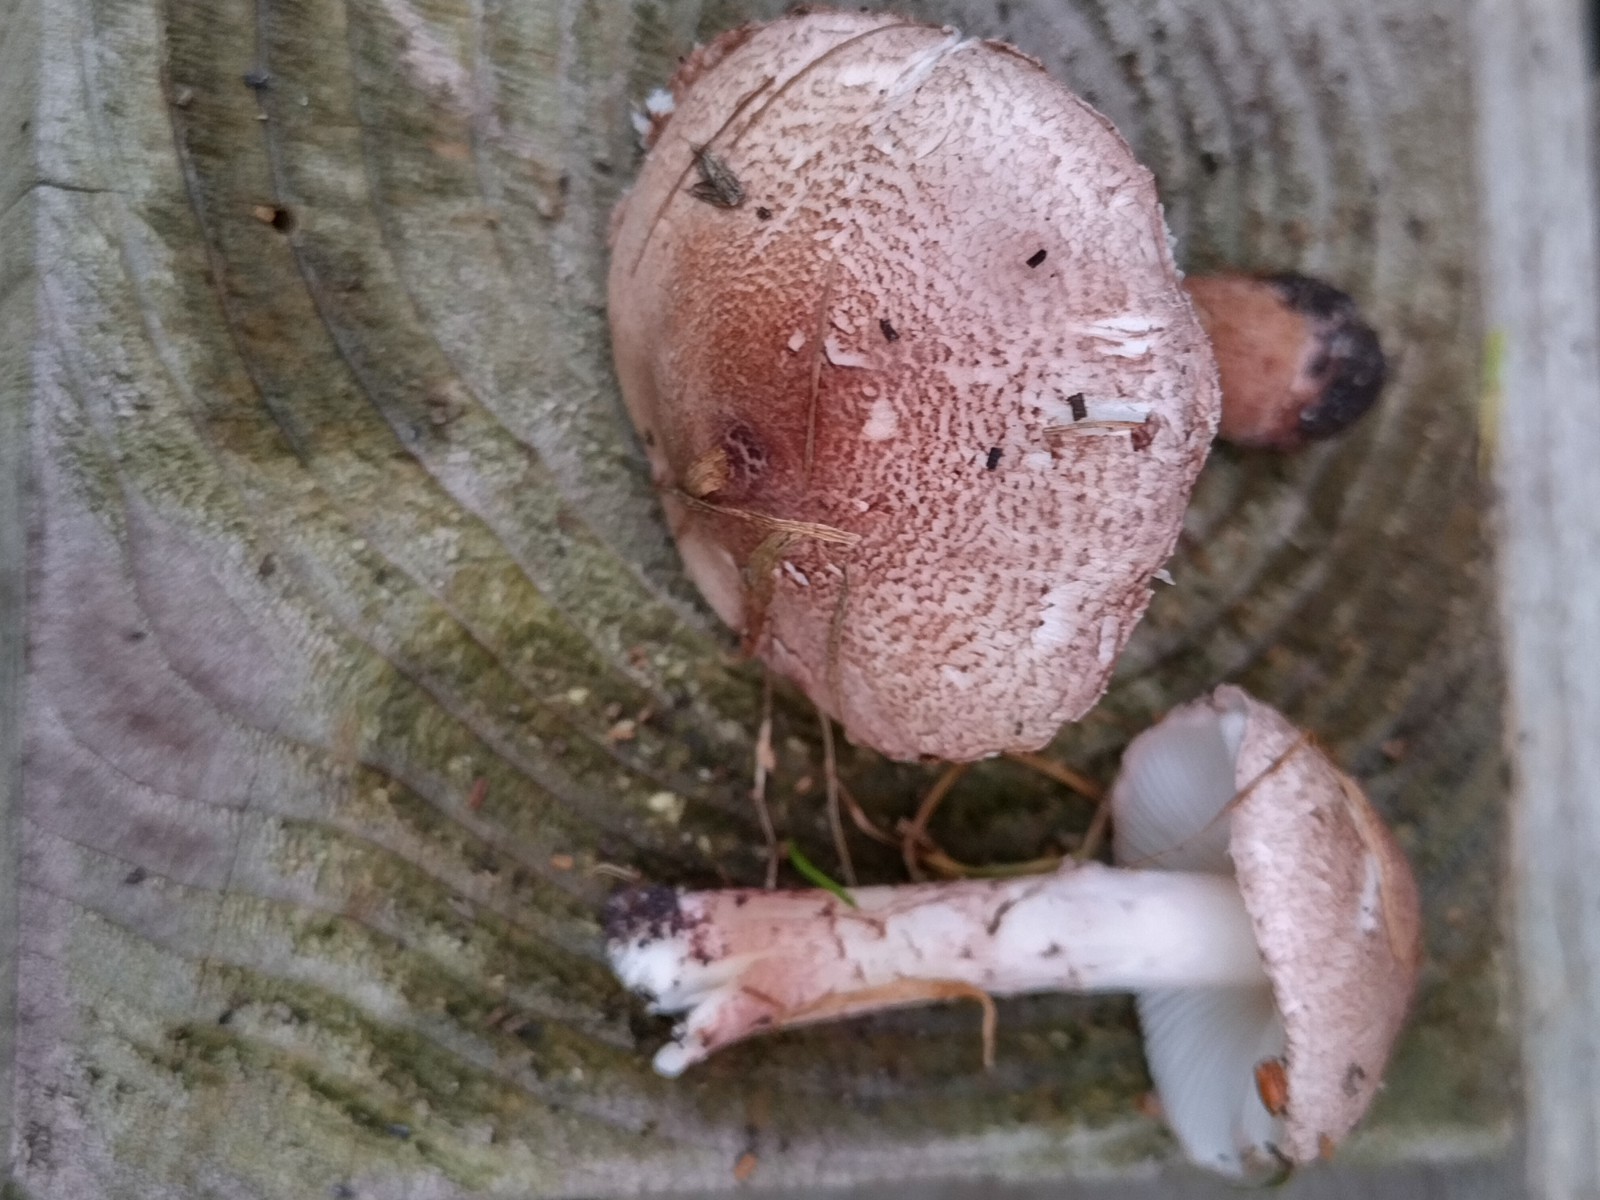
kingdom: Fungi
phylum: Basidiomycota
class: Agaricomycetes
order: Agaricales
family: Agaricaceae
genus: Lepiota
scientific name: Lepiota subincarnata
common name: kødfarvet parasolhat
